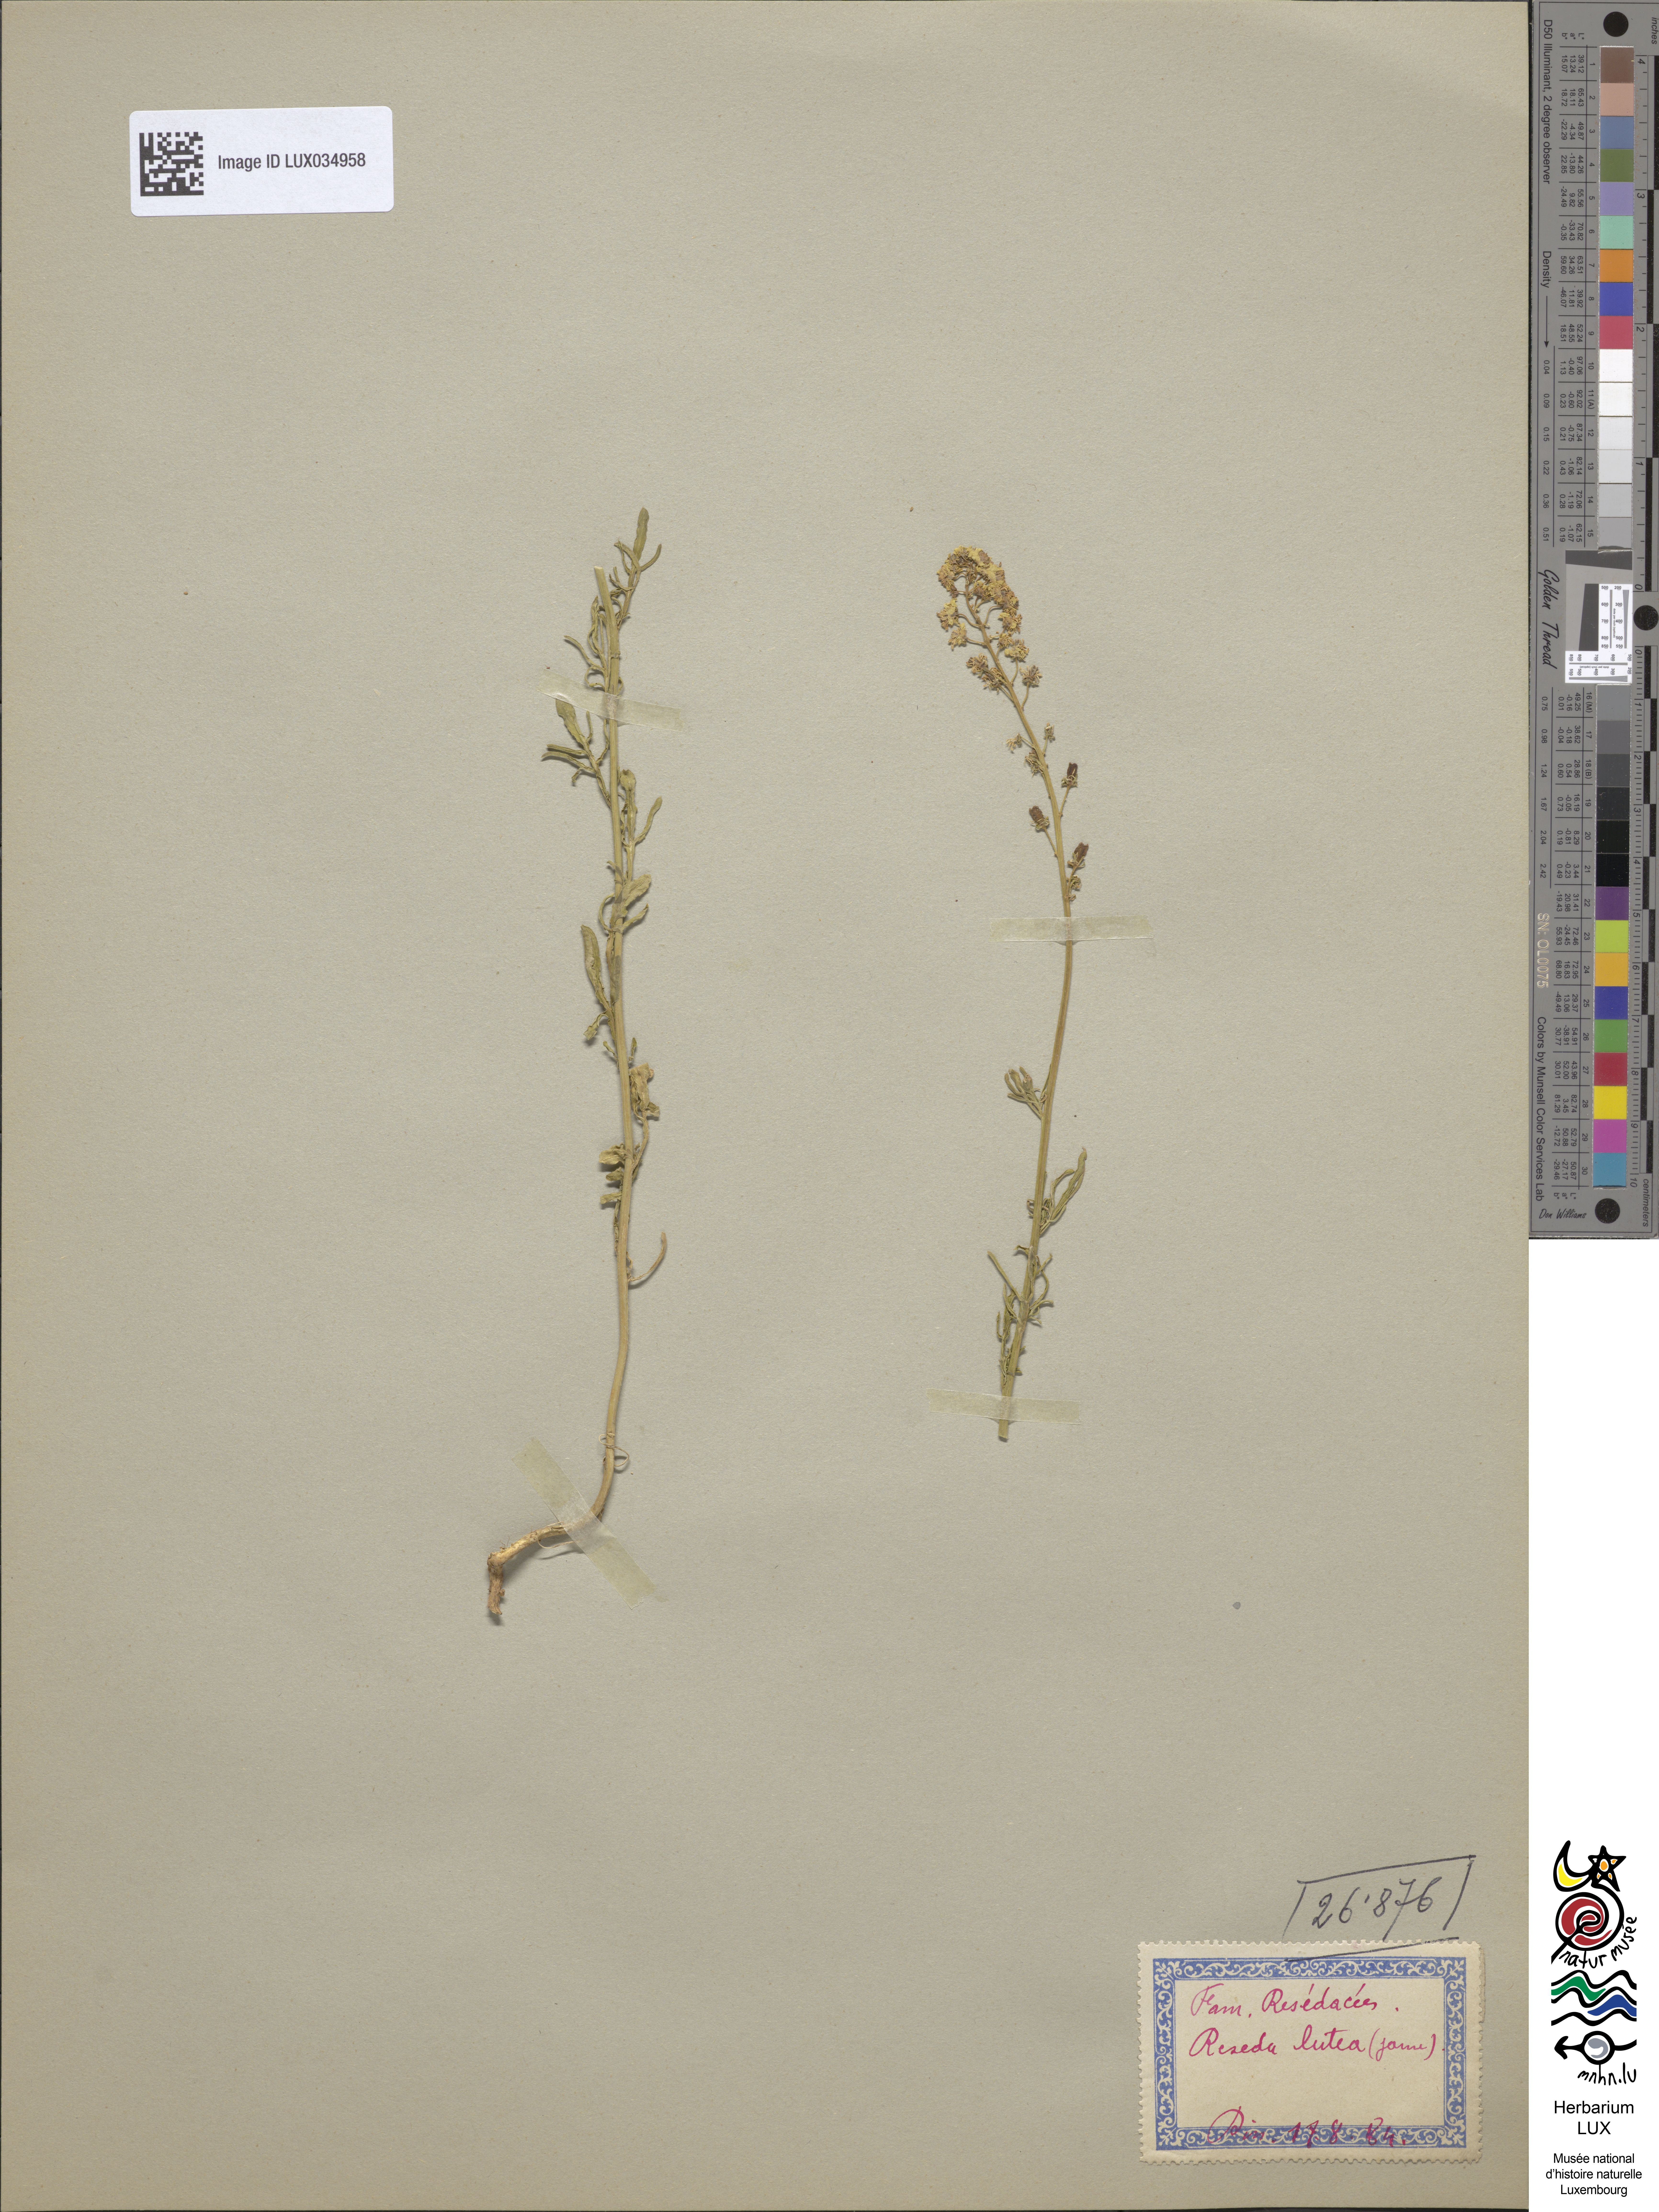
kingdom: Plantae
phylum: Tracheophyta
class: Magnoliopsida
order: Brassicales
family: Resedaceae
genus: Reseda
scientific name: Reseda lutea
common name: Wild mignonette
